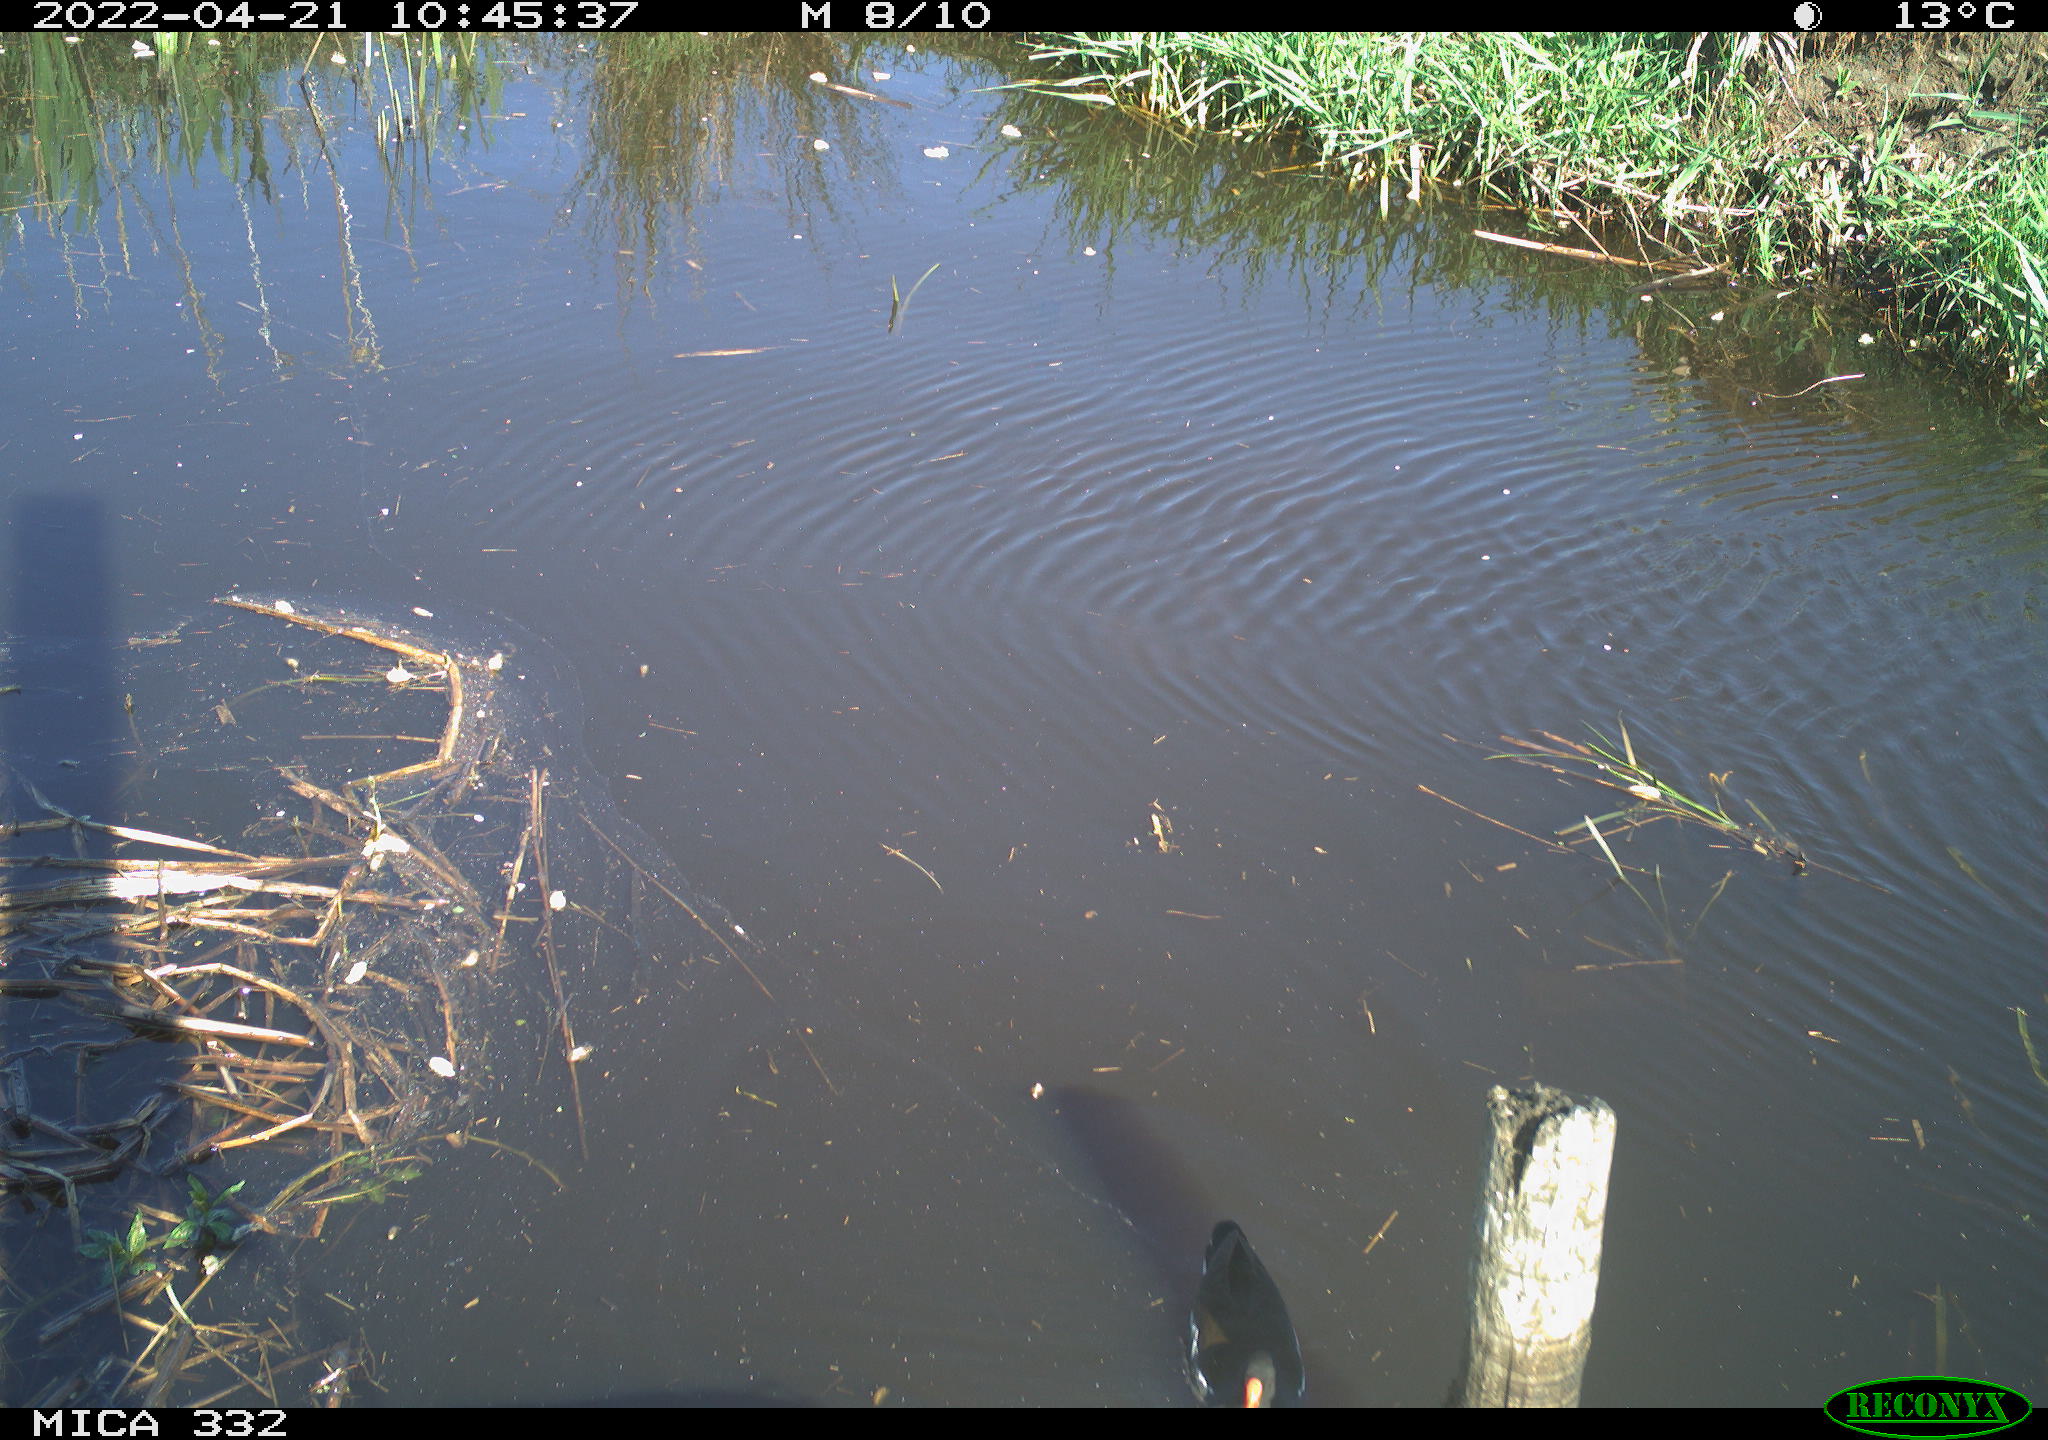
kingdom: Animalia
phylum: Chordata
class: Aves
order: Gruiformes
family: Rallidae
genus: Gallinula
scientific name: Gallinula chloropus
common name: Common moorhen
